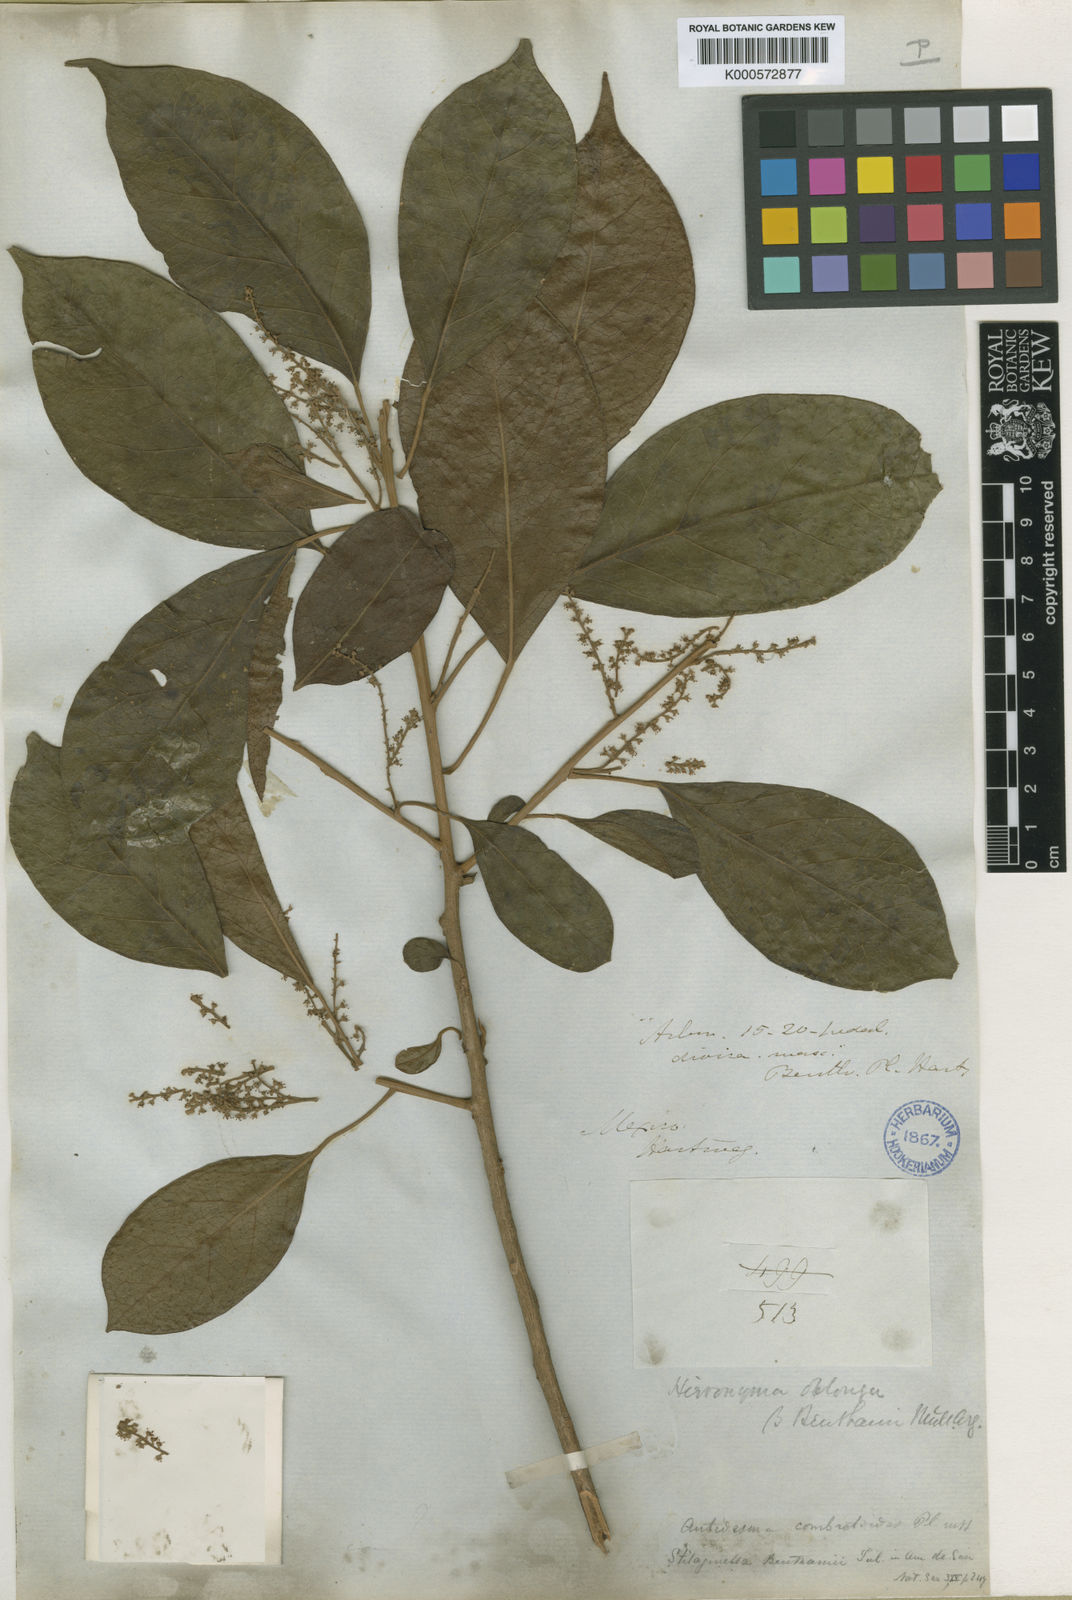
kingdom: Plantae
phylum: Tracheophyta
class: Magnoliopsida
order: Malpighiales
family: Phyllanthaceae
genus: Hieronyma
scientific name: Hieronyma
